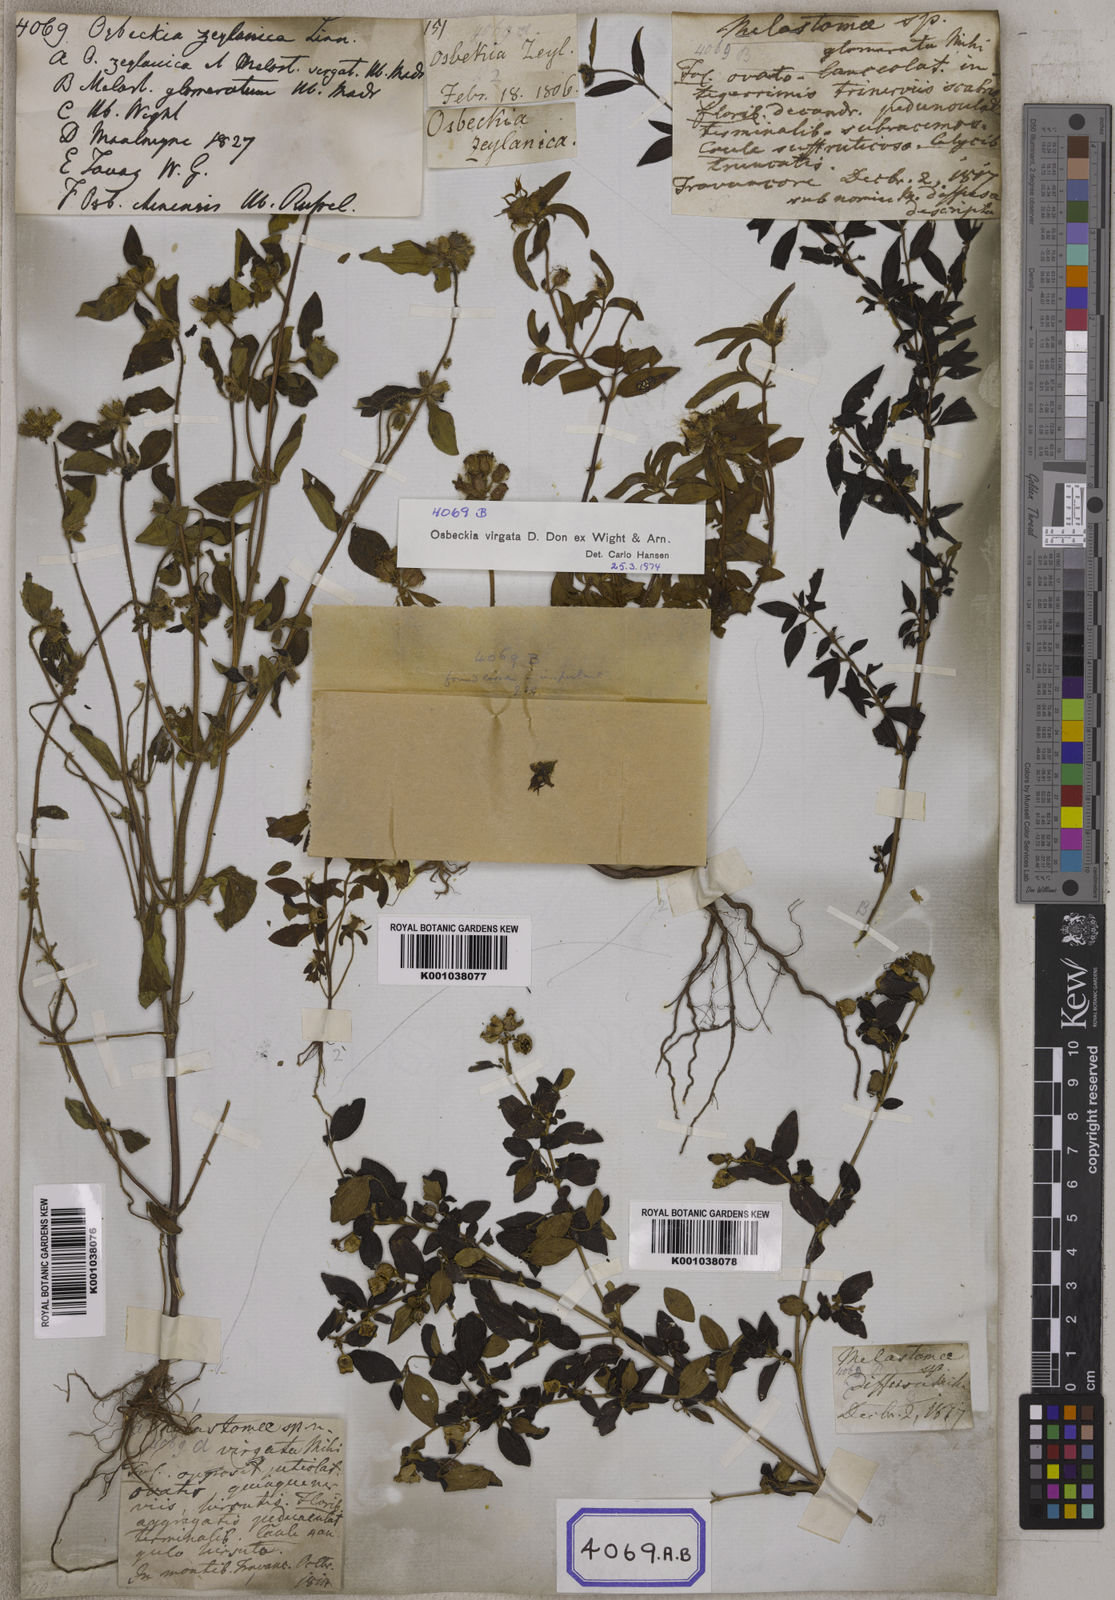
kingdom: Plantae
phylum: Tracheophyta
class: Magnoliopsida
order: Myrtales
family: Melastomataceae
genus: Osbeckia
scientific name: Osbeckia zeylanica
